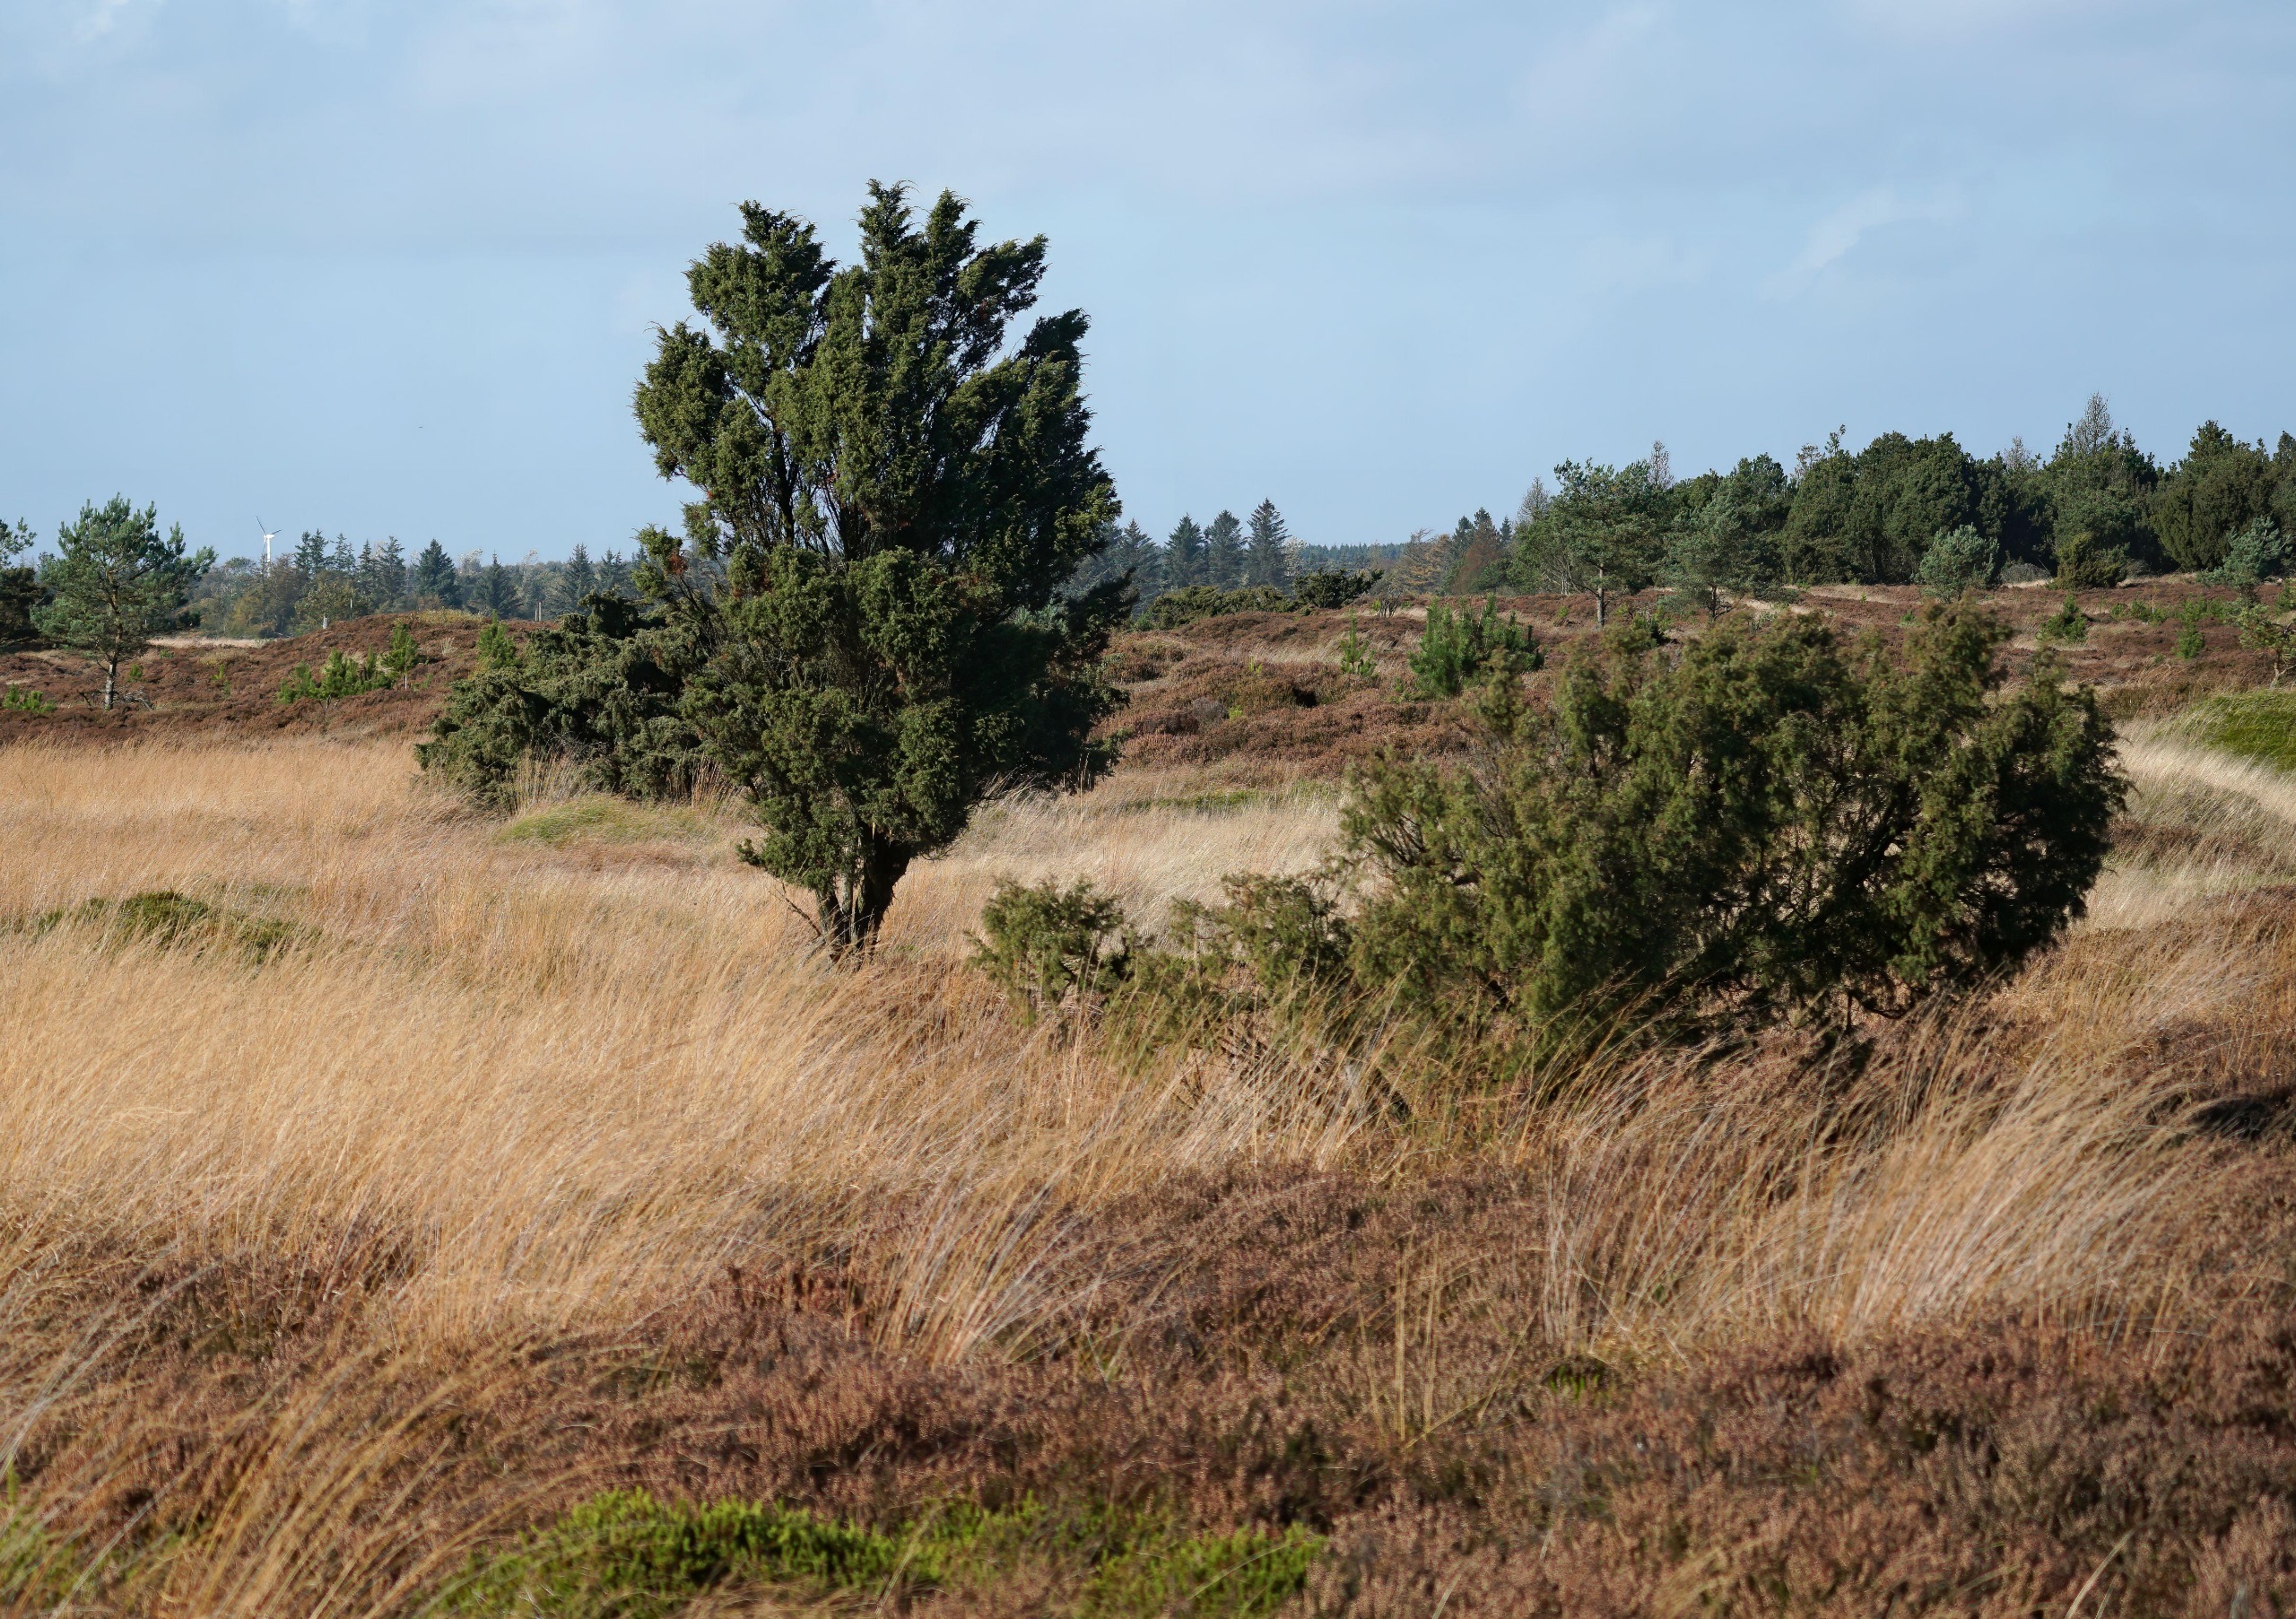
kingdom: Plantae
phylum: Tracheophyta
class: Pinopsida
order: Pinales
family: Cupressaceae
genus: Juniperus
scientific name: Juniperus communis
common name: Almindelig ene
